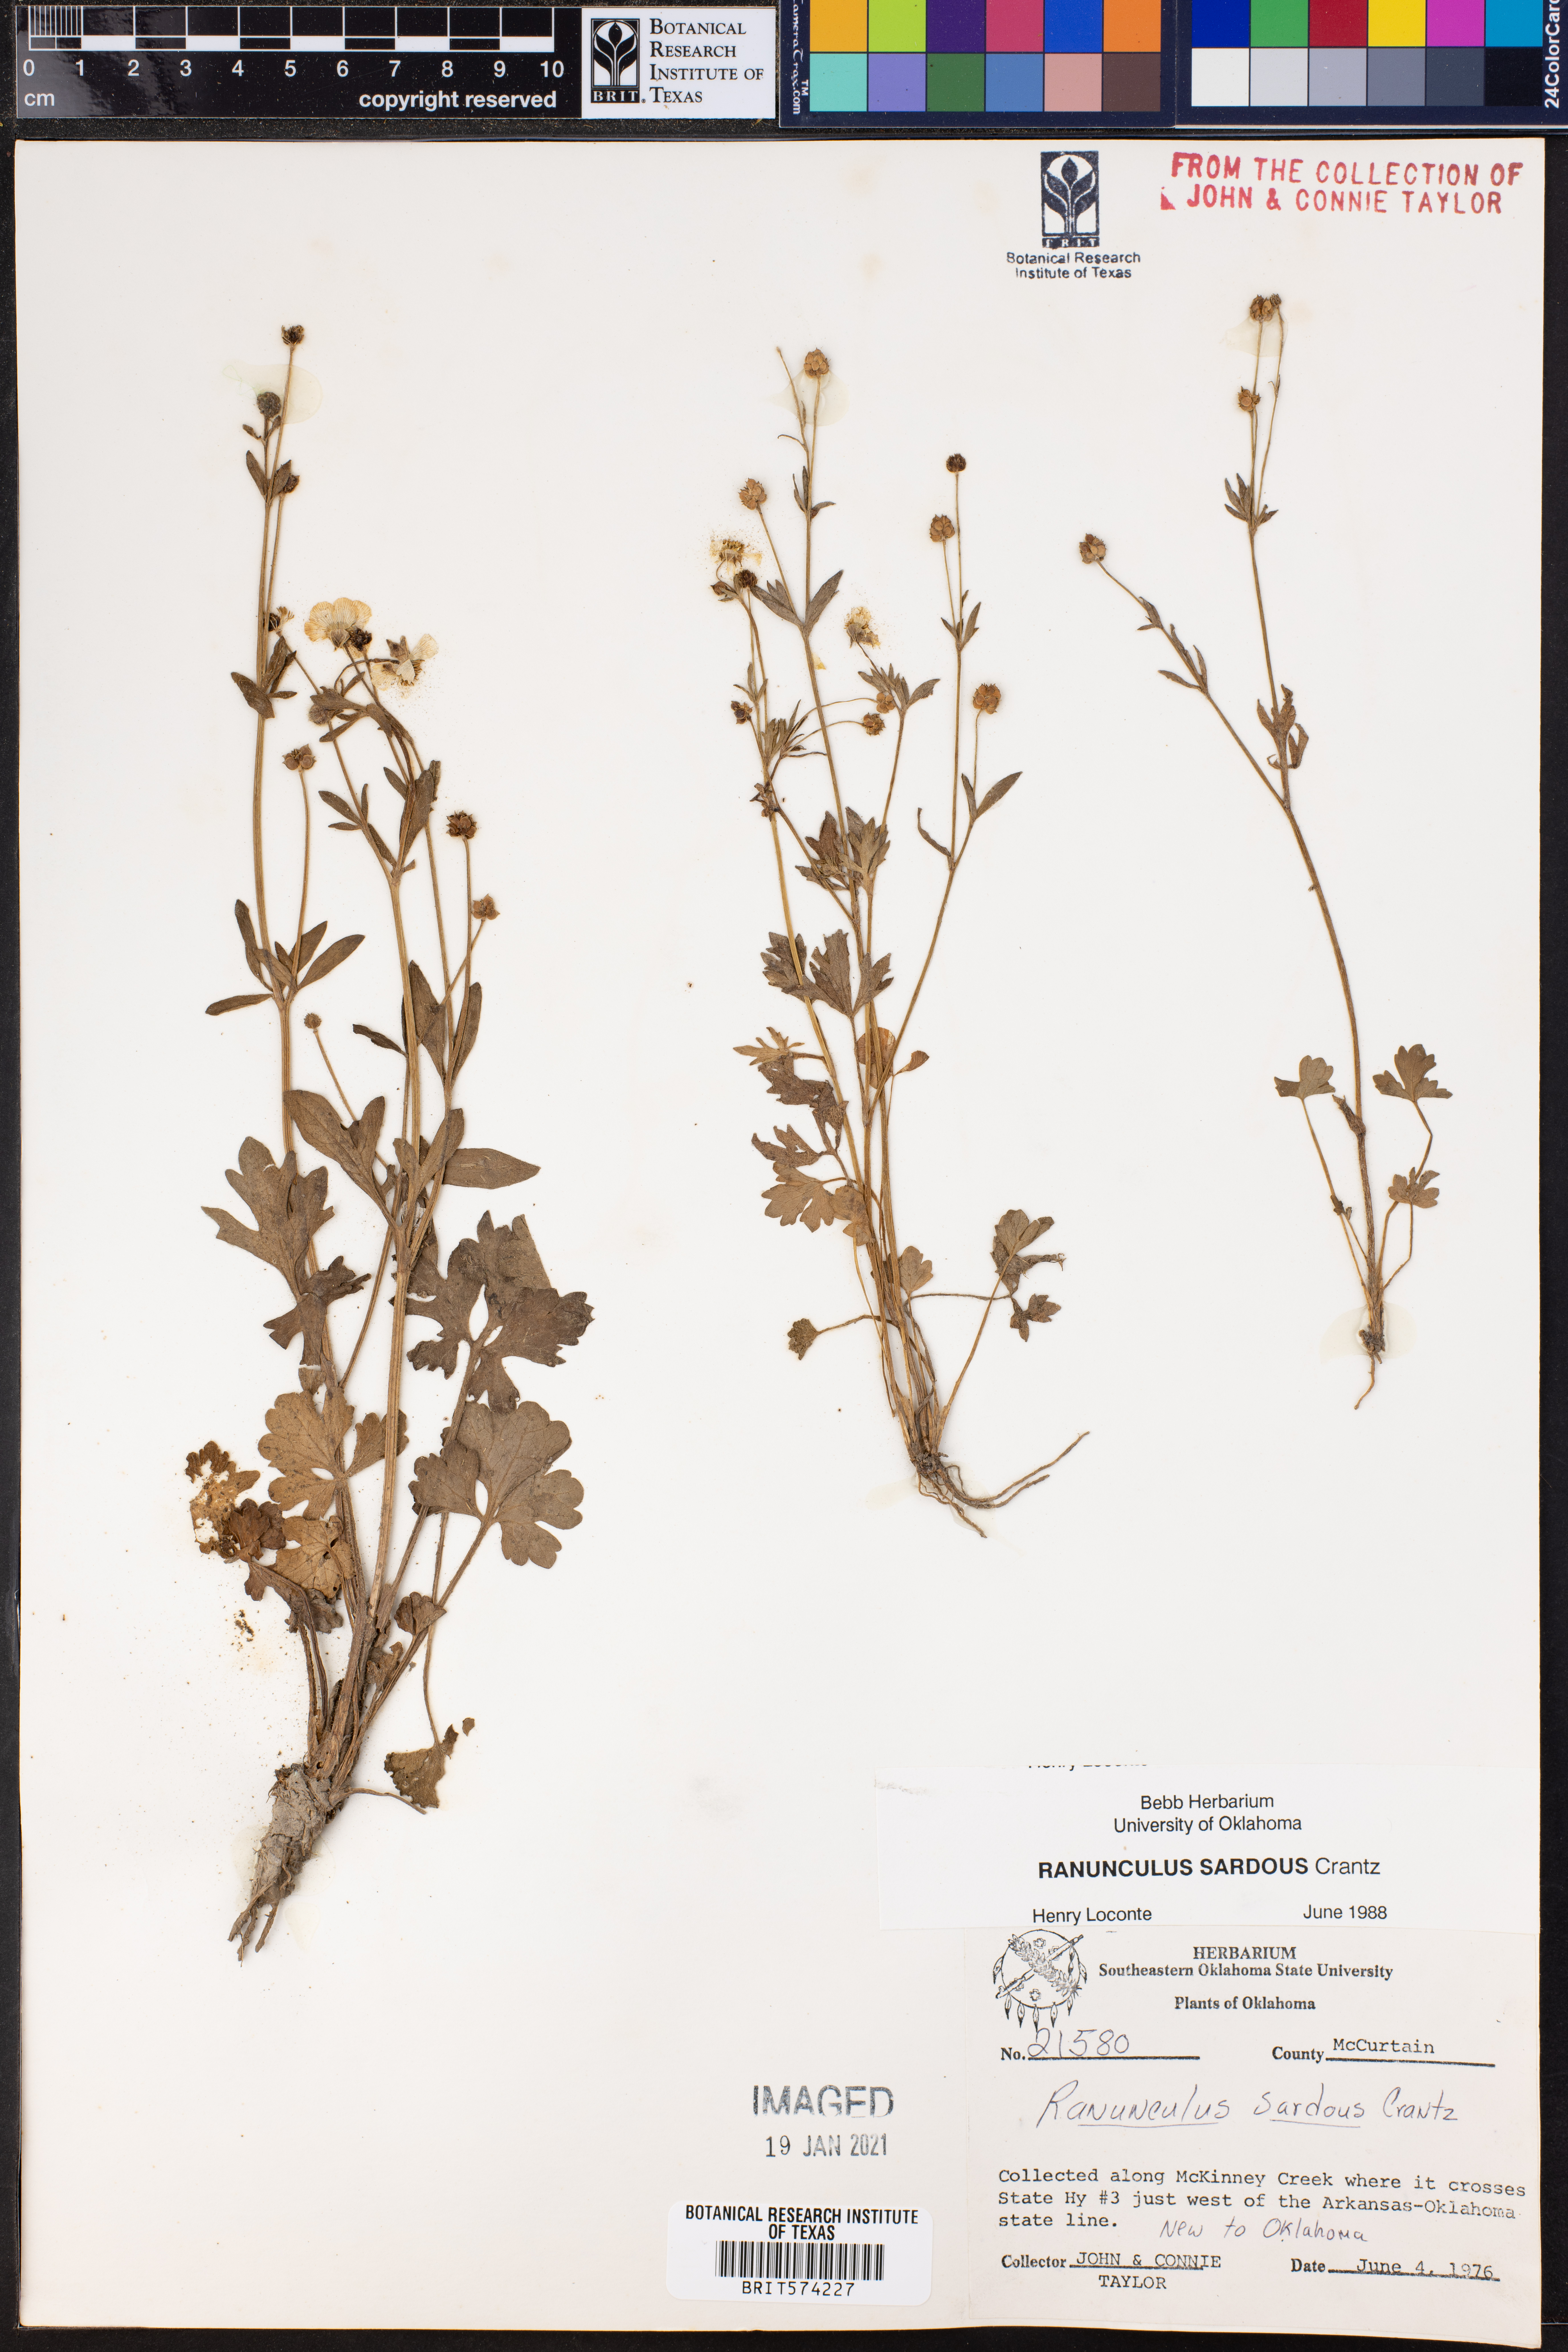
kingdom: Plantae
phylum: Tracheophyta
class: Magnoliopsida
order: Ranunculales
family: Ranunculaceae
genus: Ranunculus
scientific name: Ranunculus sardous
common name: Hairy buttercup
